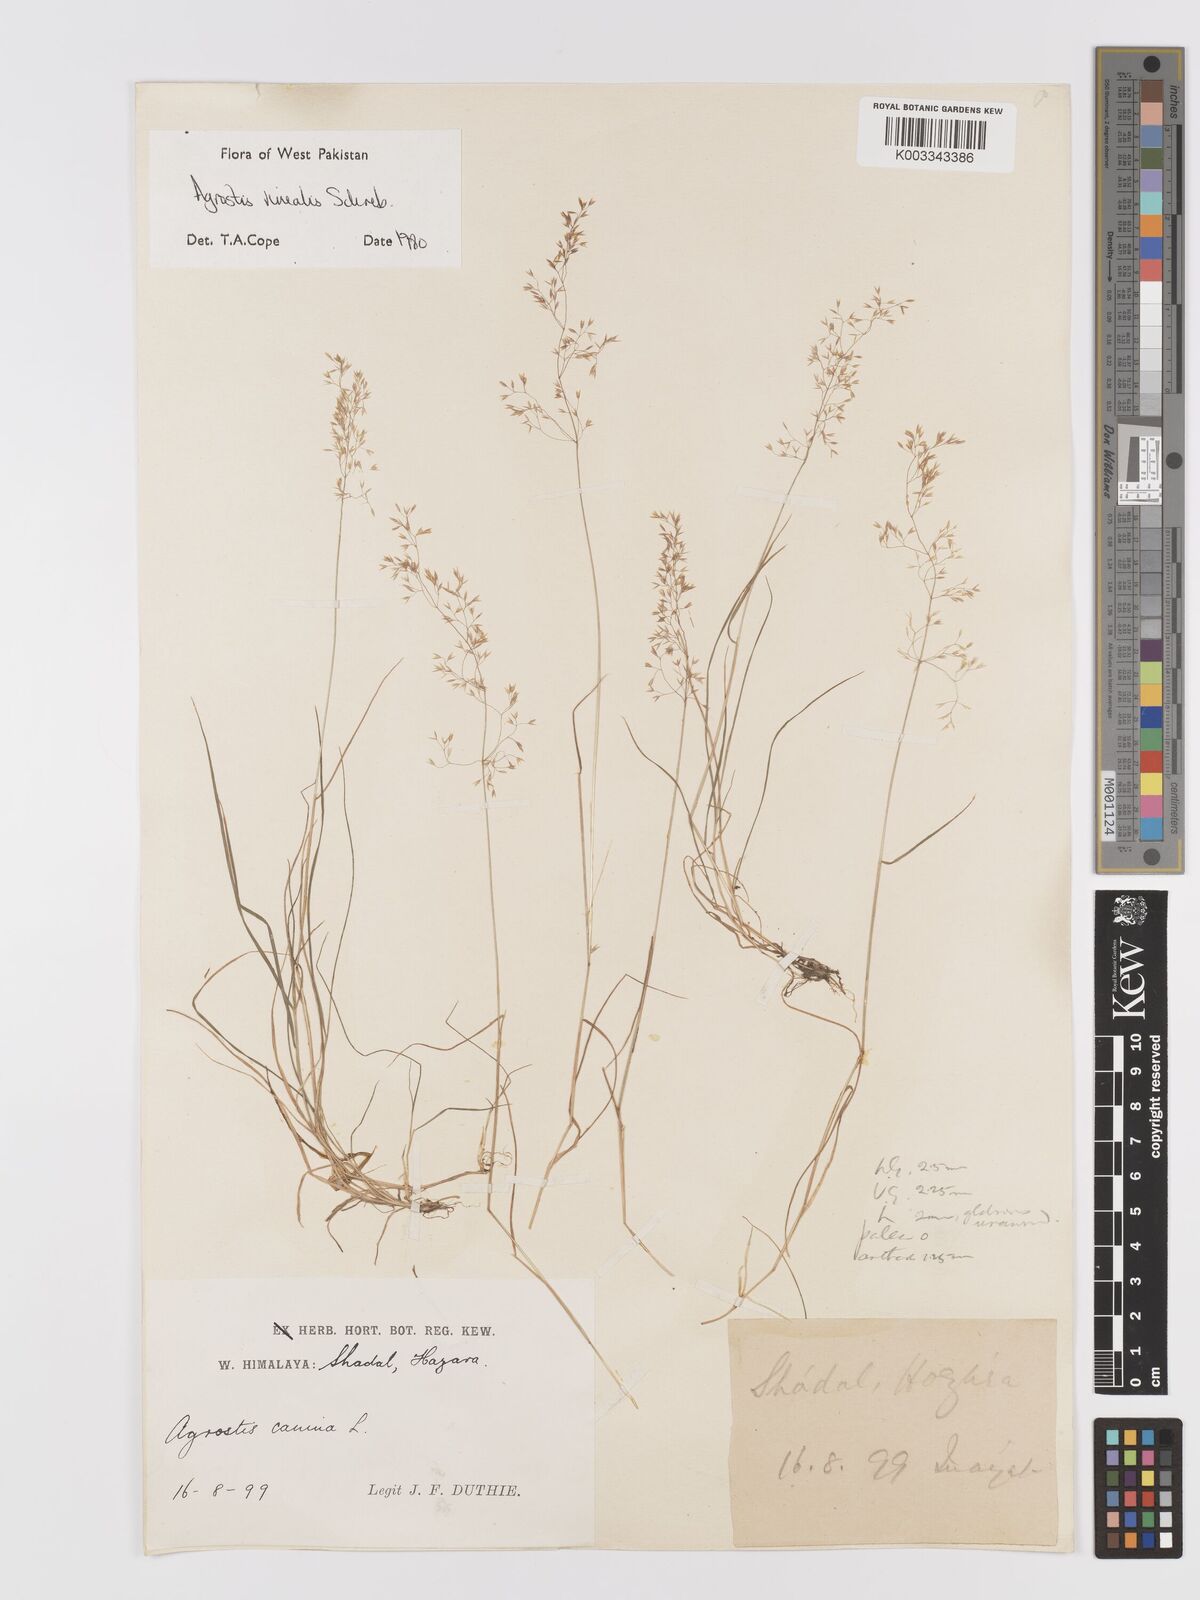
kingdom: Plantae
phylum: Tracheophyta
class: Liliopsida
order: Poales
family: Poaceae
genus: Agrostis
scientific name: Agrostis vinealis
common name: Brown bent
